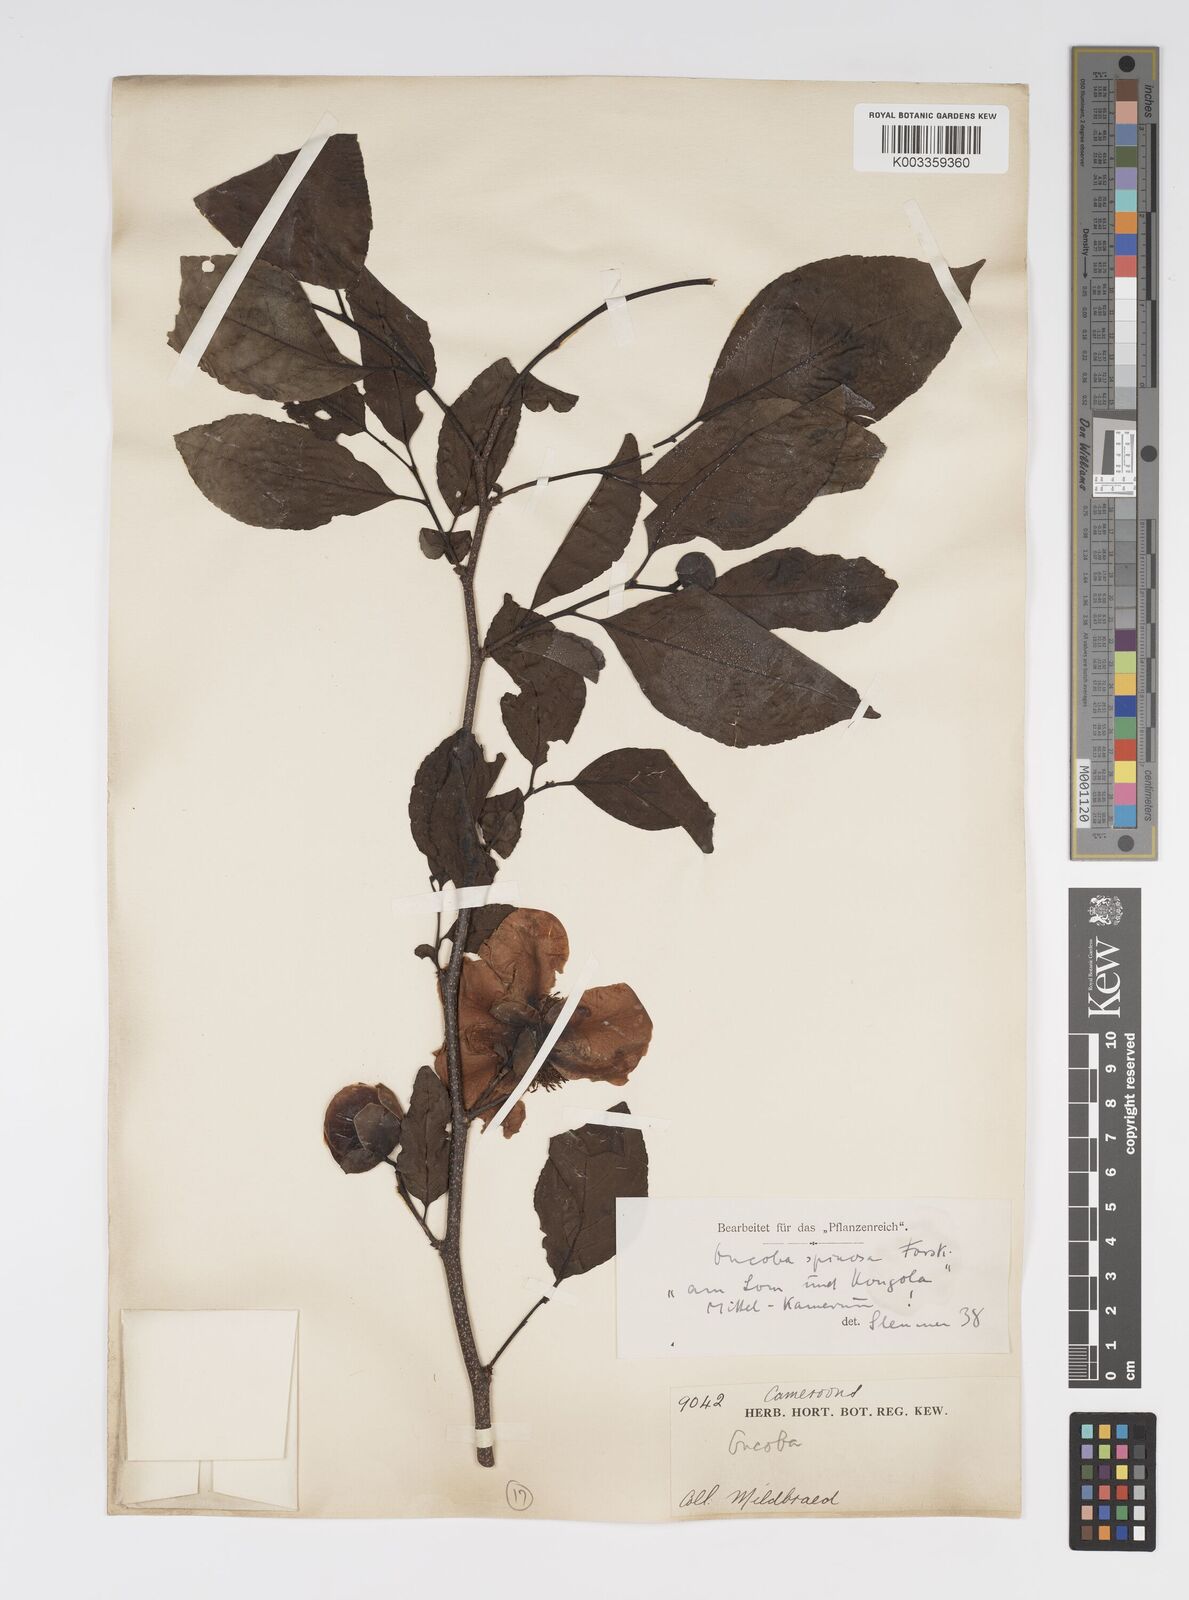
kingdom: Plantae
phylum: Tracheophyta
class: Magnoliopsida
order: Malpighiales
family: Salicaceae
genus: Oncoba
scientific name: Oncoba spinosa
